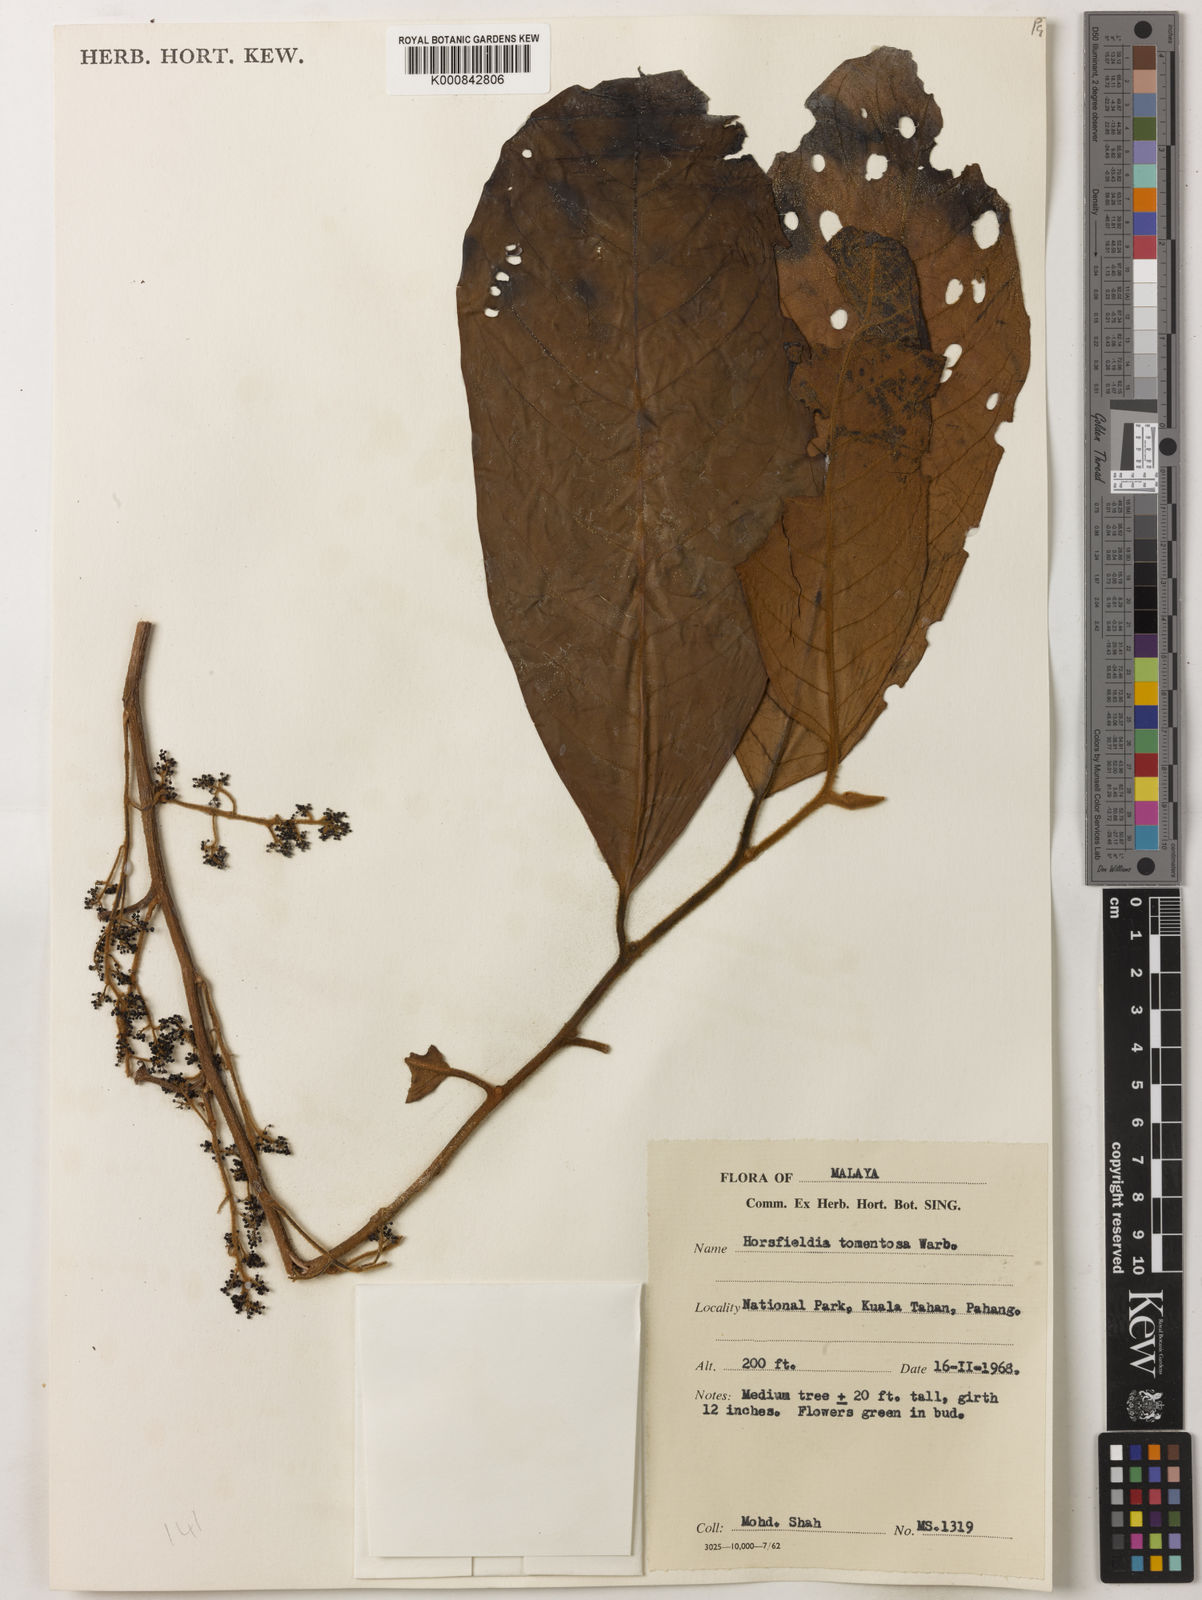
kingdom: Plantae
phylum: Tracheophyta
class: Magnoliopsida
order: Magnoliales
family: Myristicaceae
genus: Horsfieldia
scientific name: Horsfieldia tomentosa
